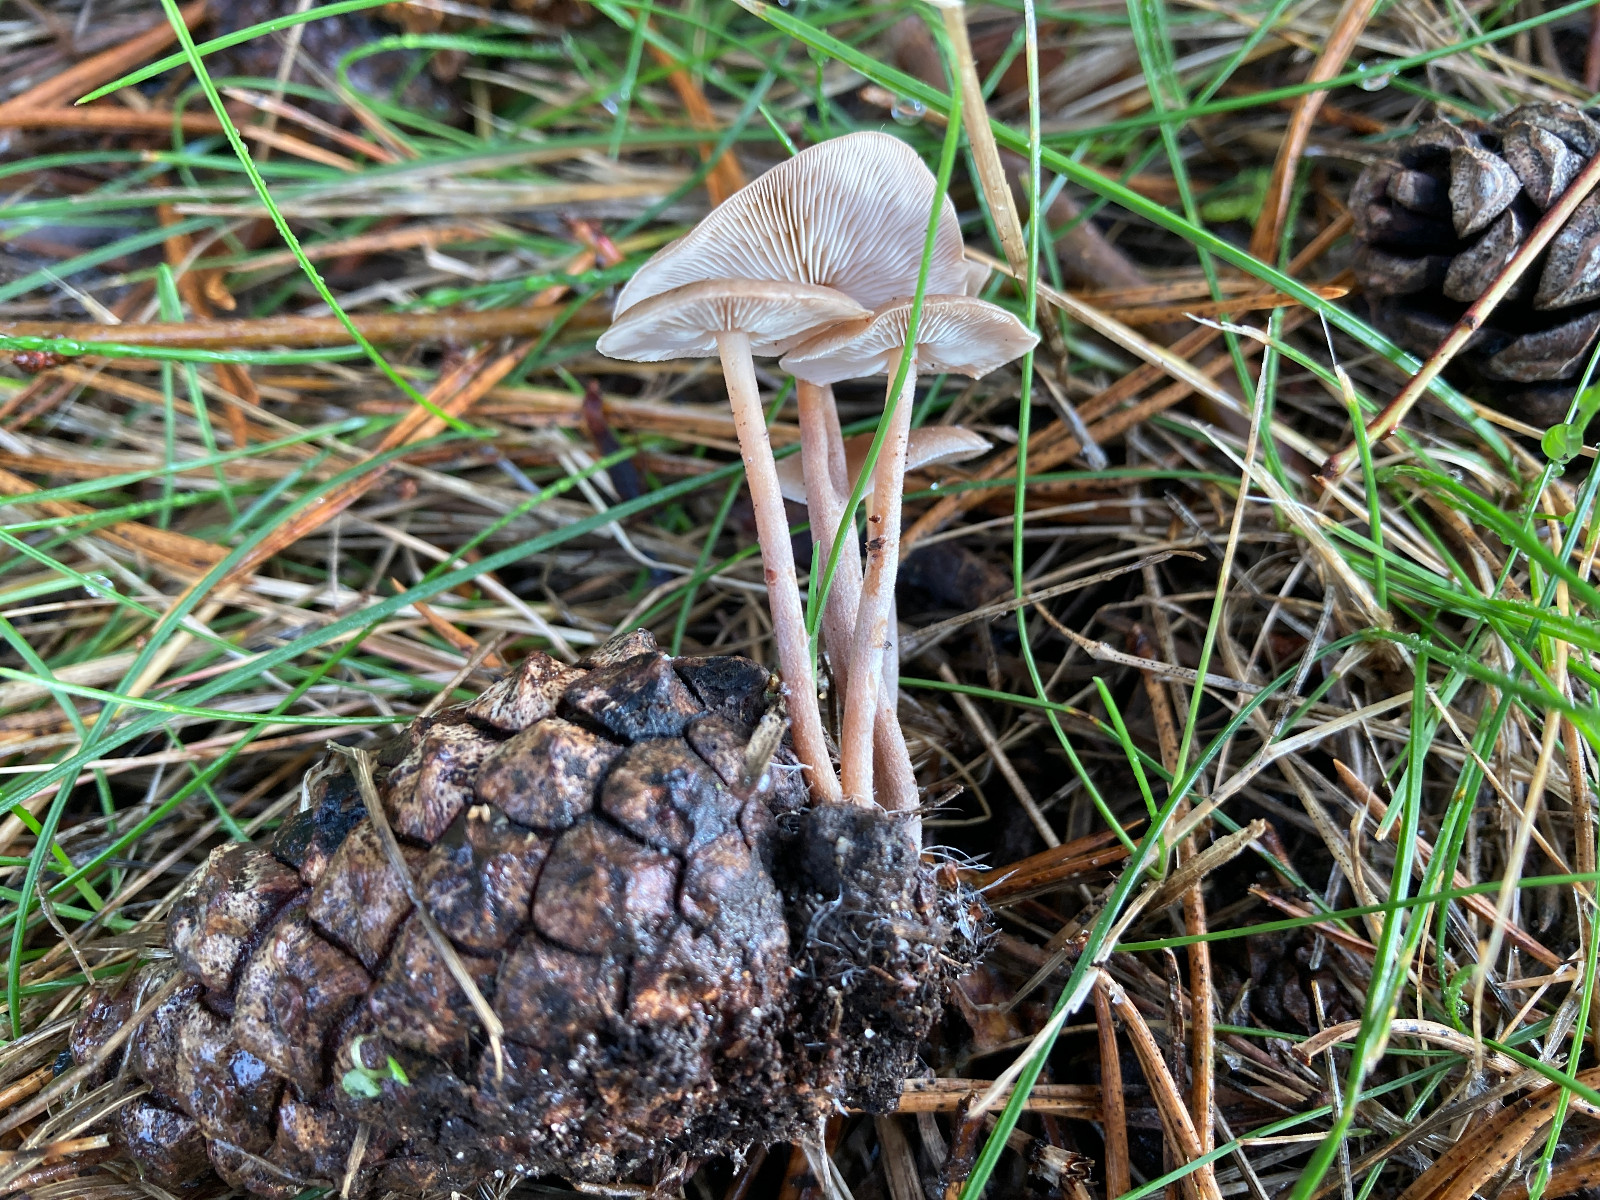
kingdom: Fungi
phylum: Basidiomycota
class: Agaricomycetes
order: Agaricales
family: Marasmiaceae
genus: Baeospora
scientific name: Baeospora myosura
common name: koglebruskhat
